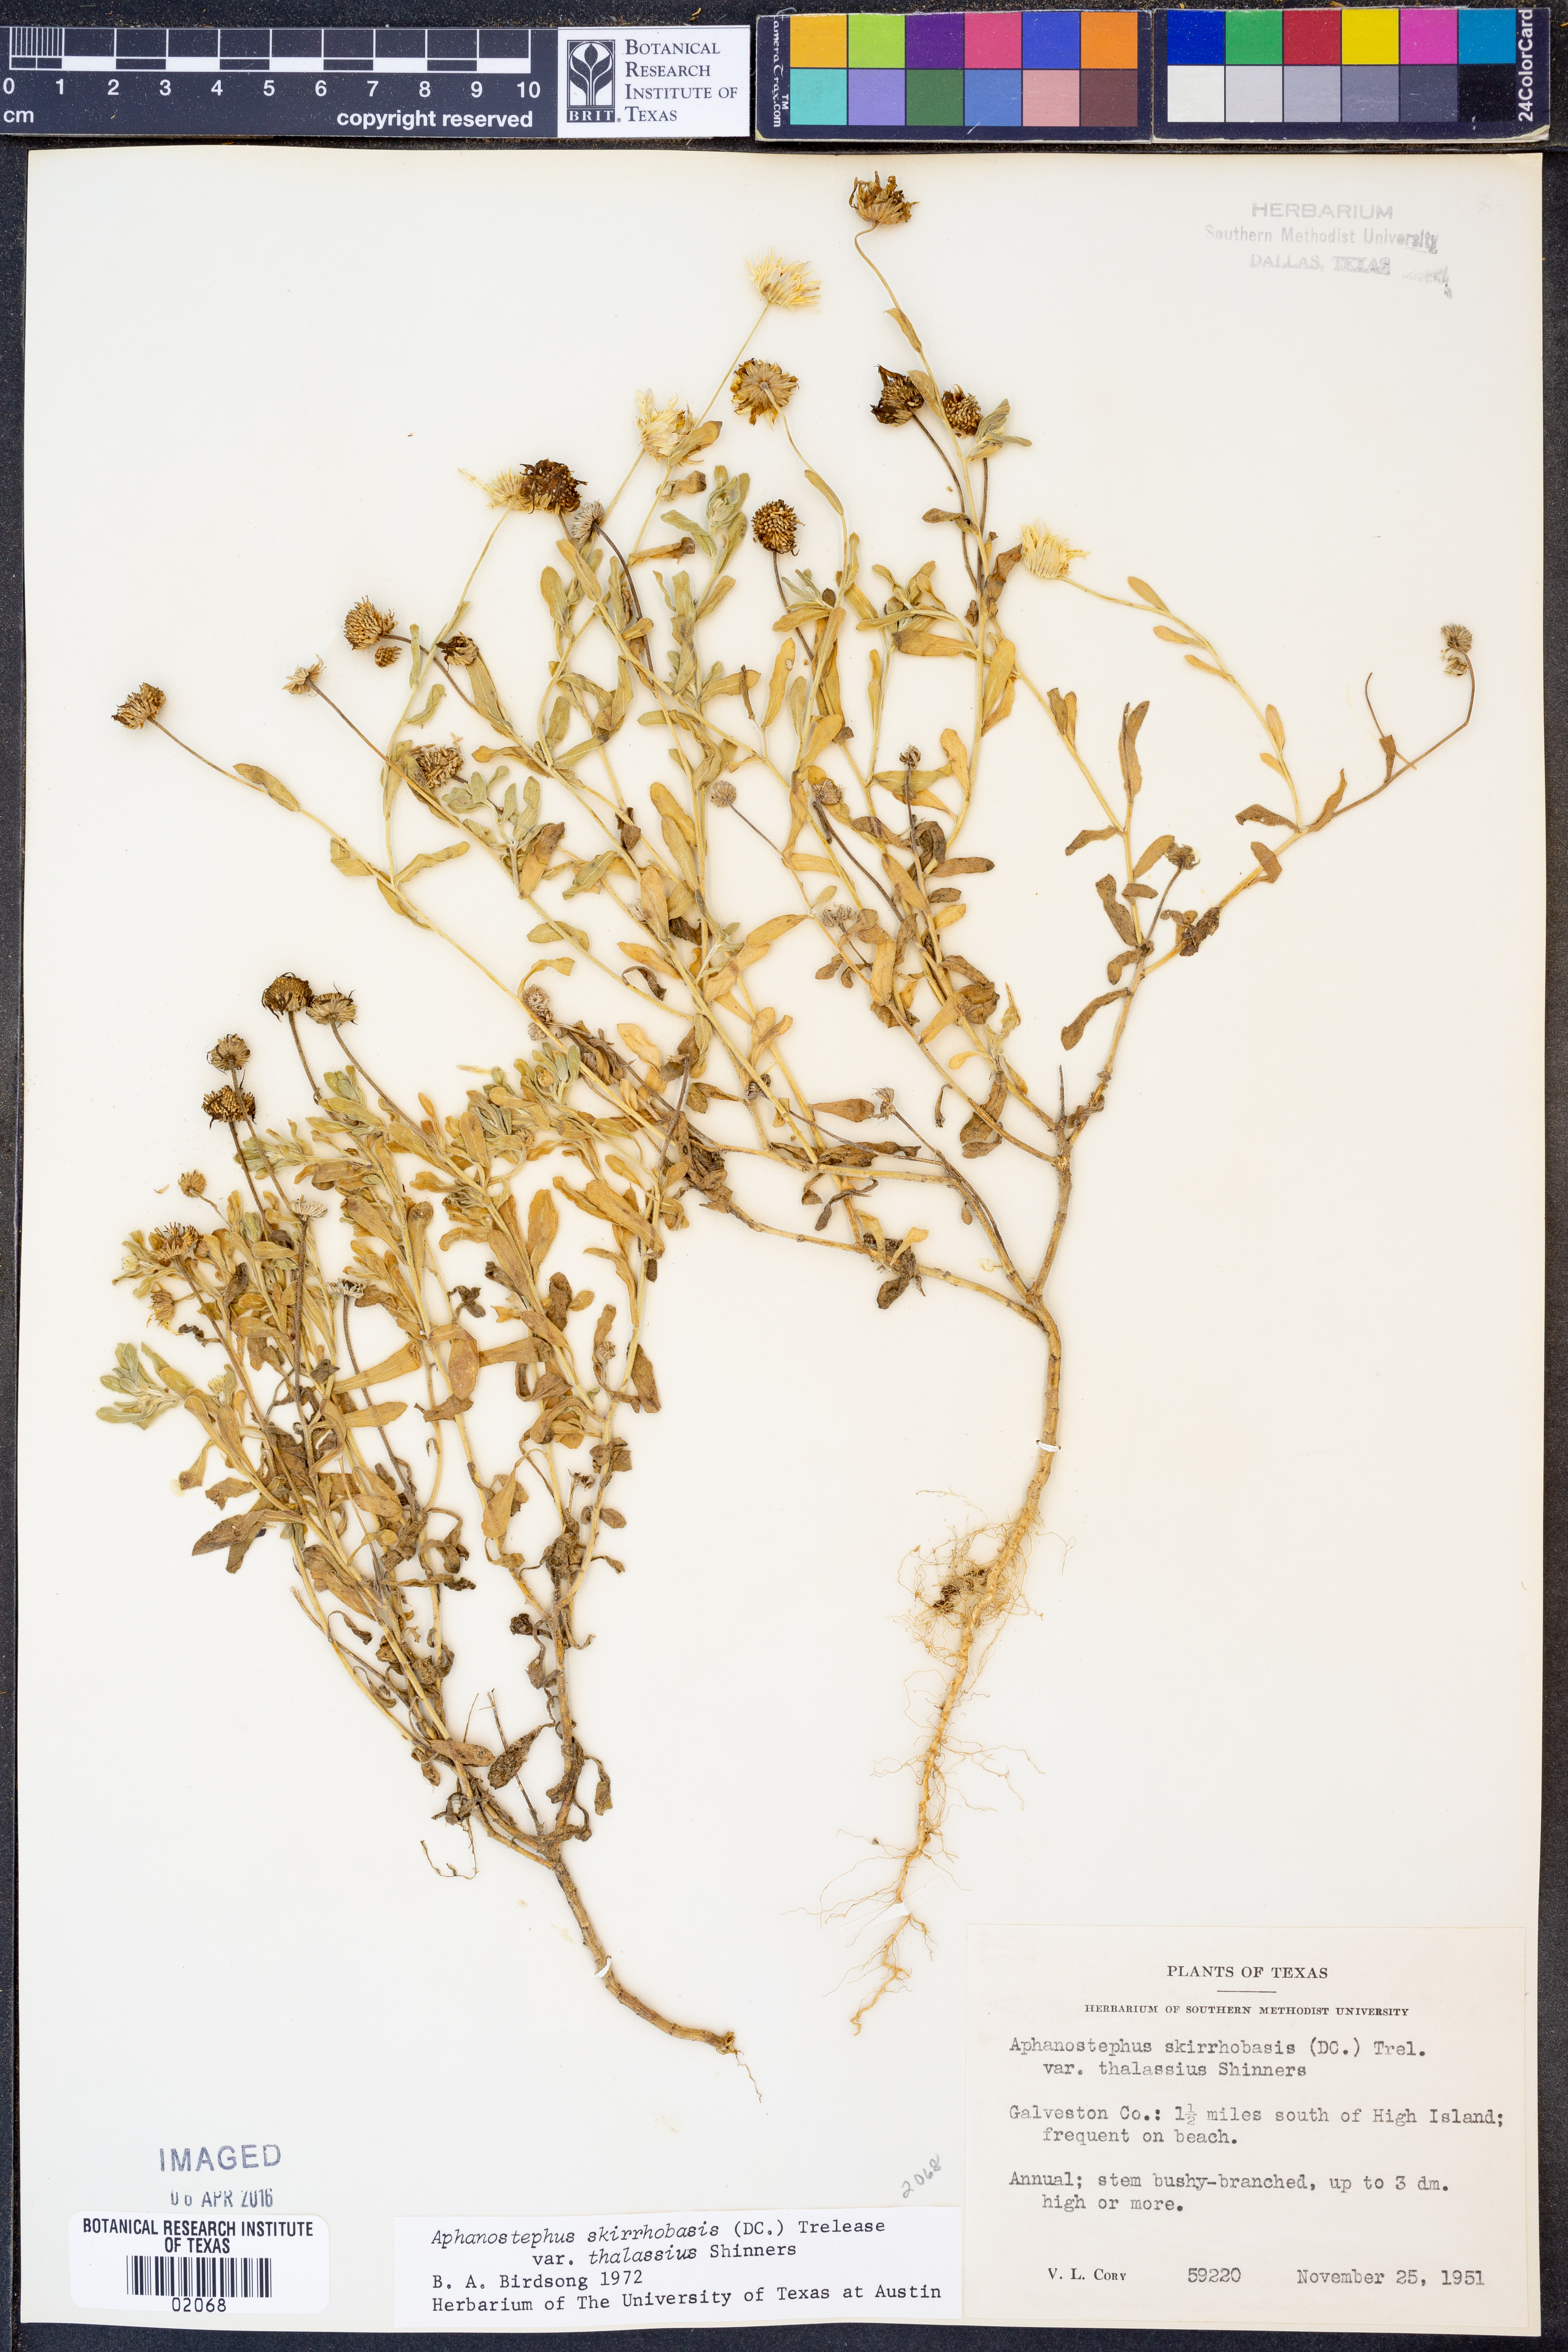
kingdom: Plantae
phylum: Tracheophyta
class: Magnoliopsida
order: Asterales
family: Asteraceae
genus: Aphanostephus
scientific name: Aphanostephus skirrhobasis
